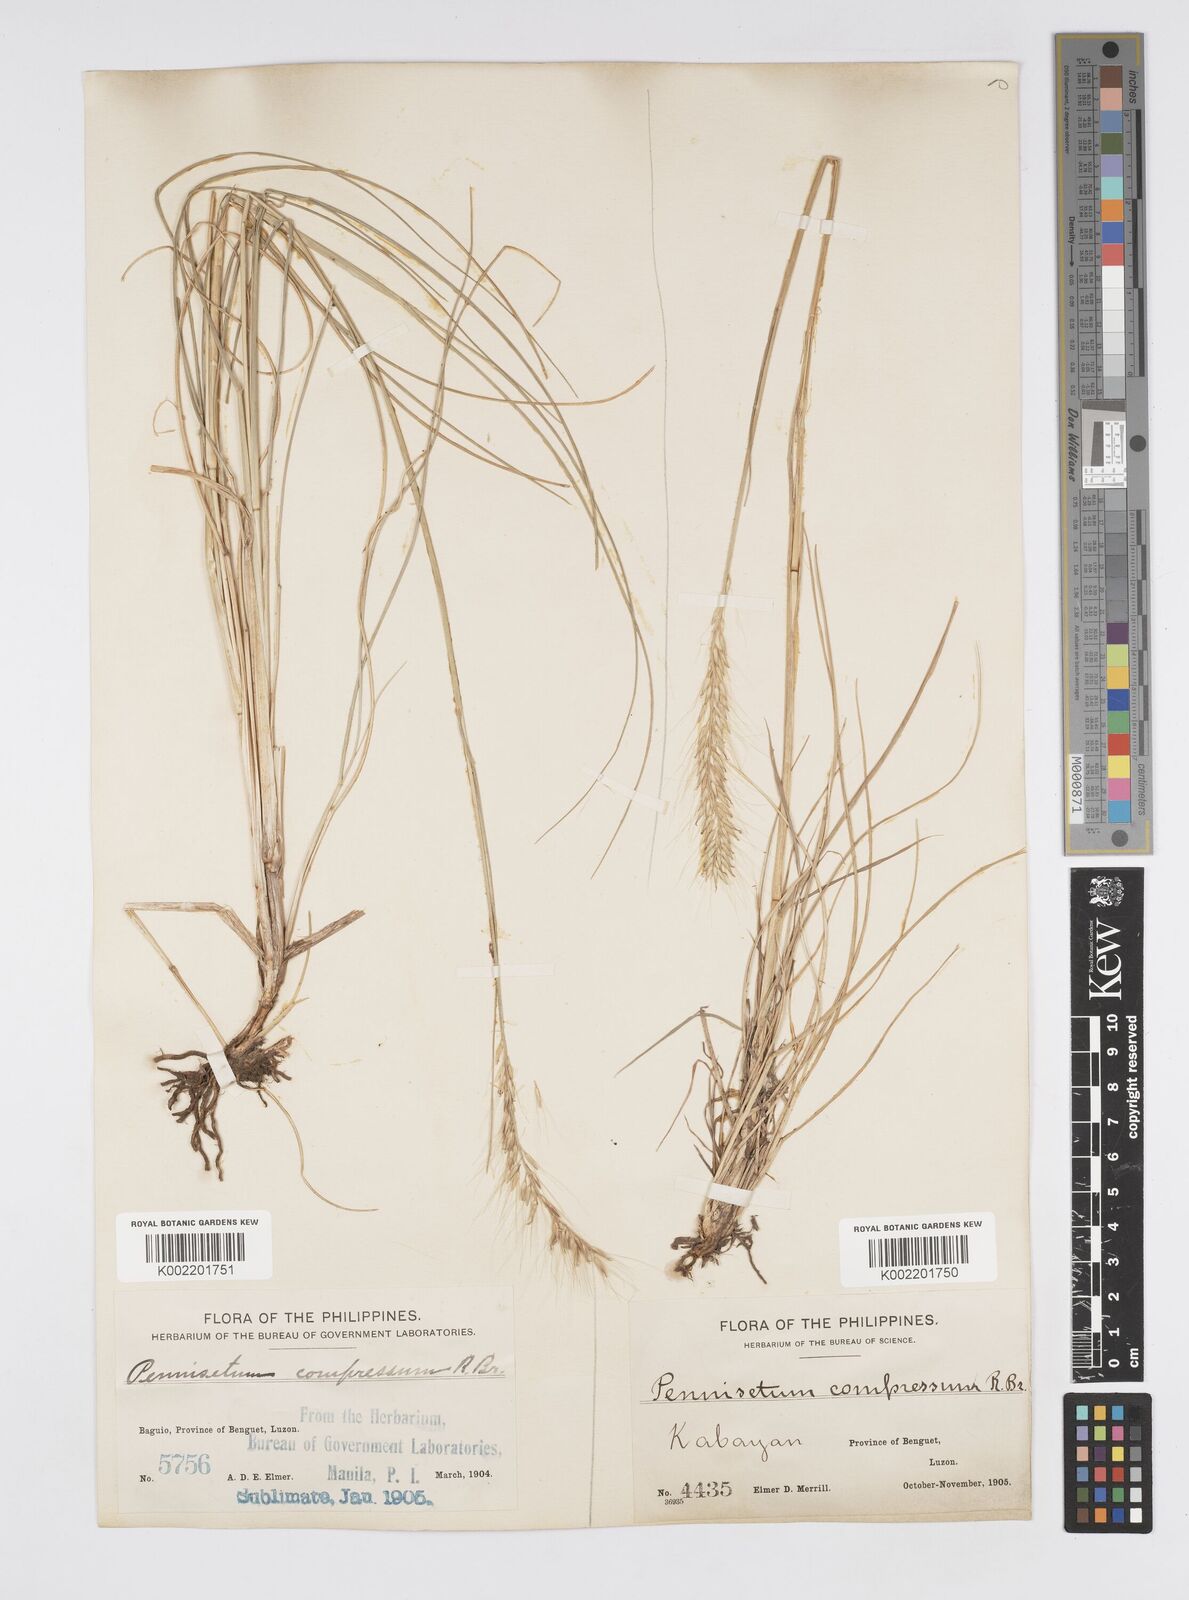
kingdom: Plantae
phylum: Tracheophyta
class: Liliopsida
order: Poales
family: Poaceae
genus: Cenchrus
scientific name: Cenchrus setosus
